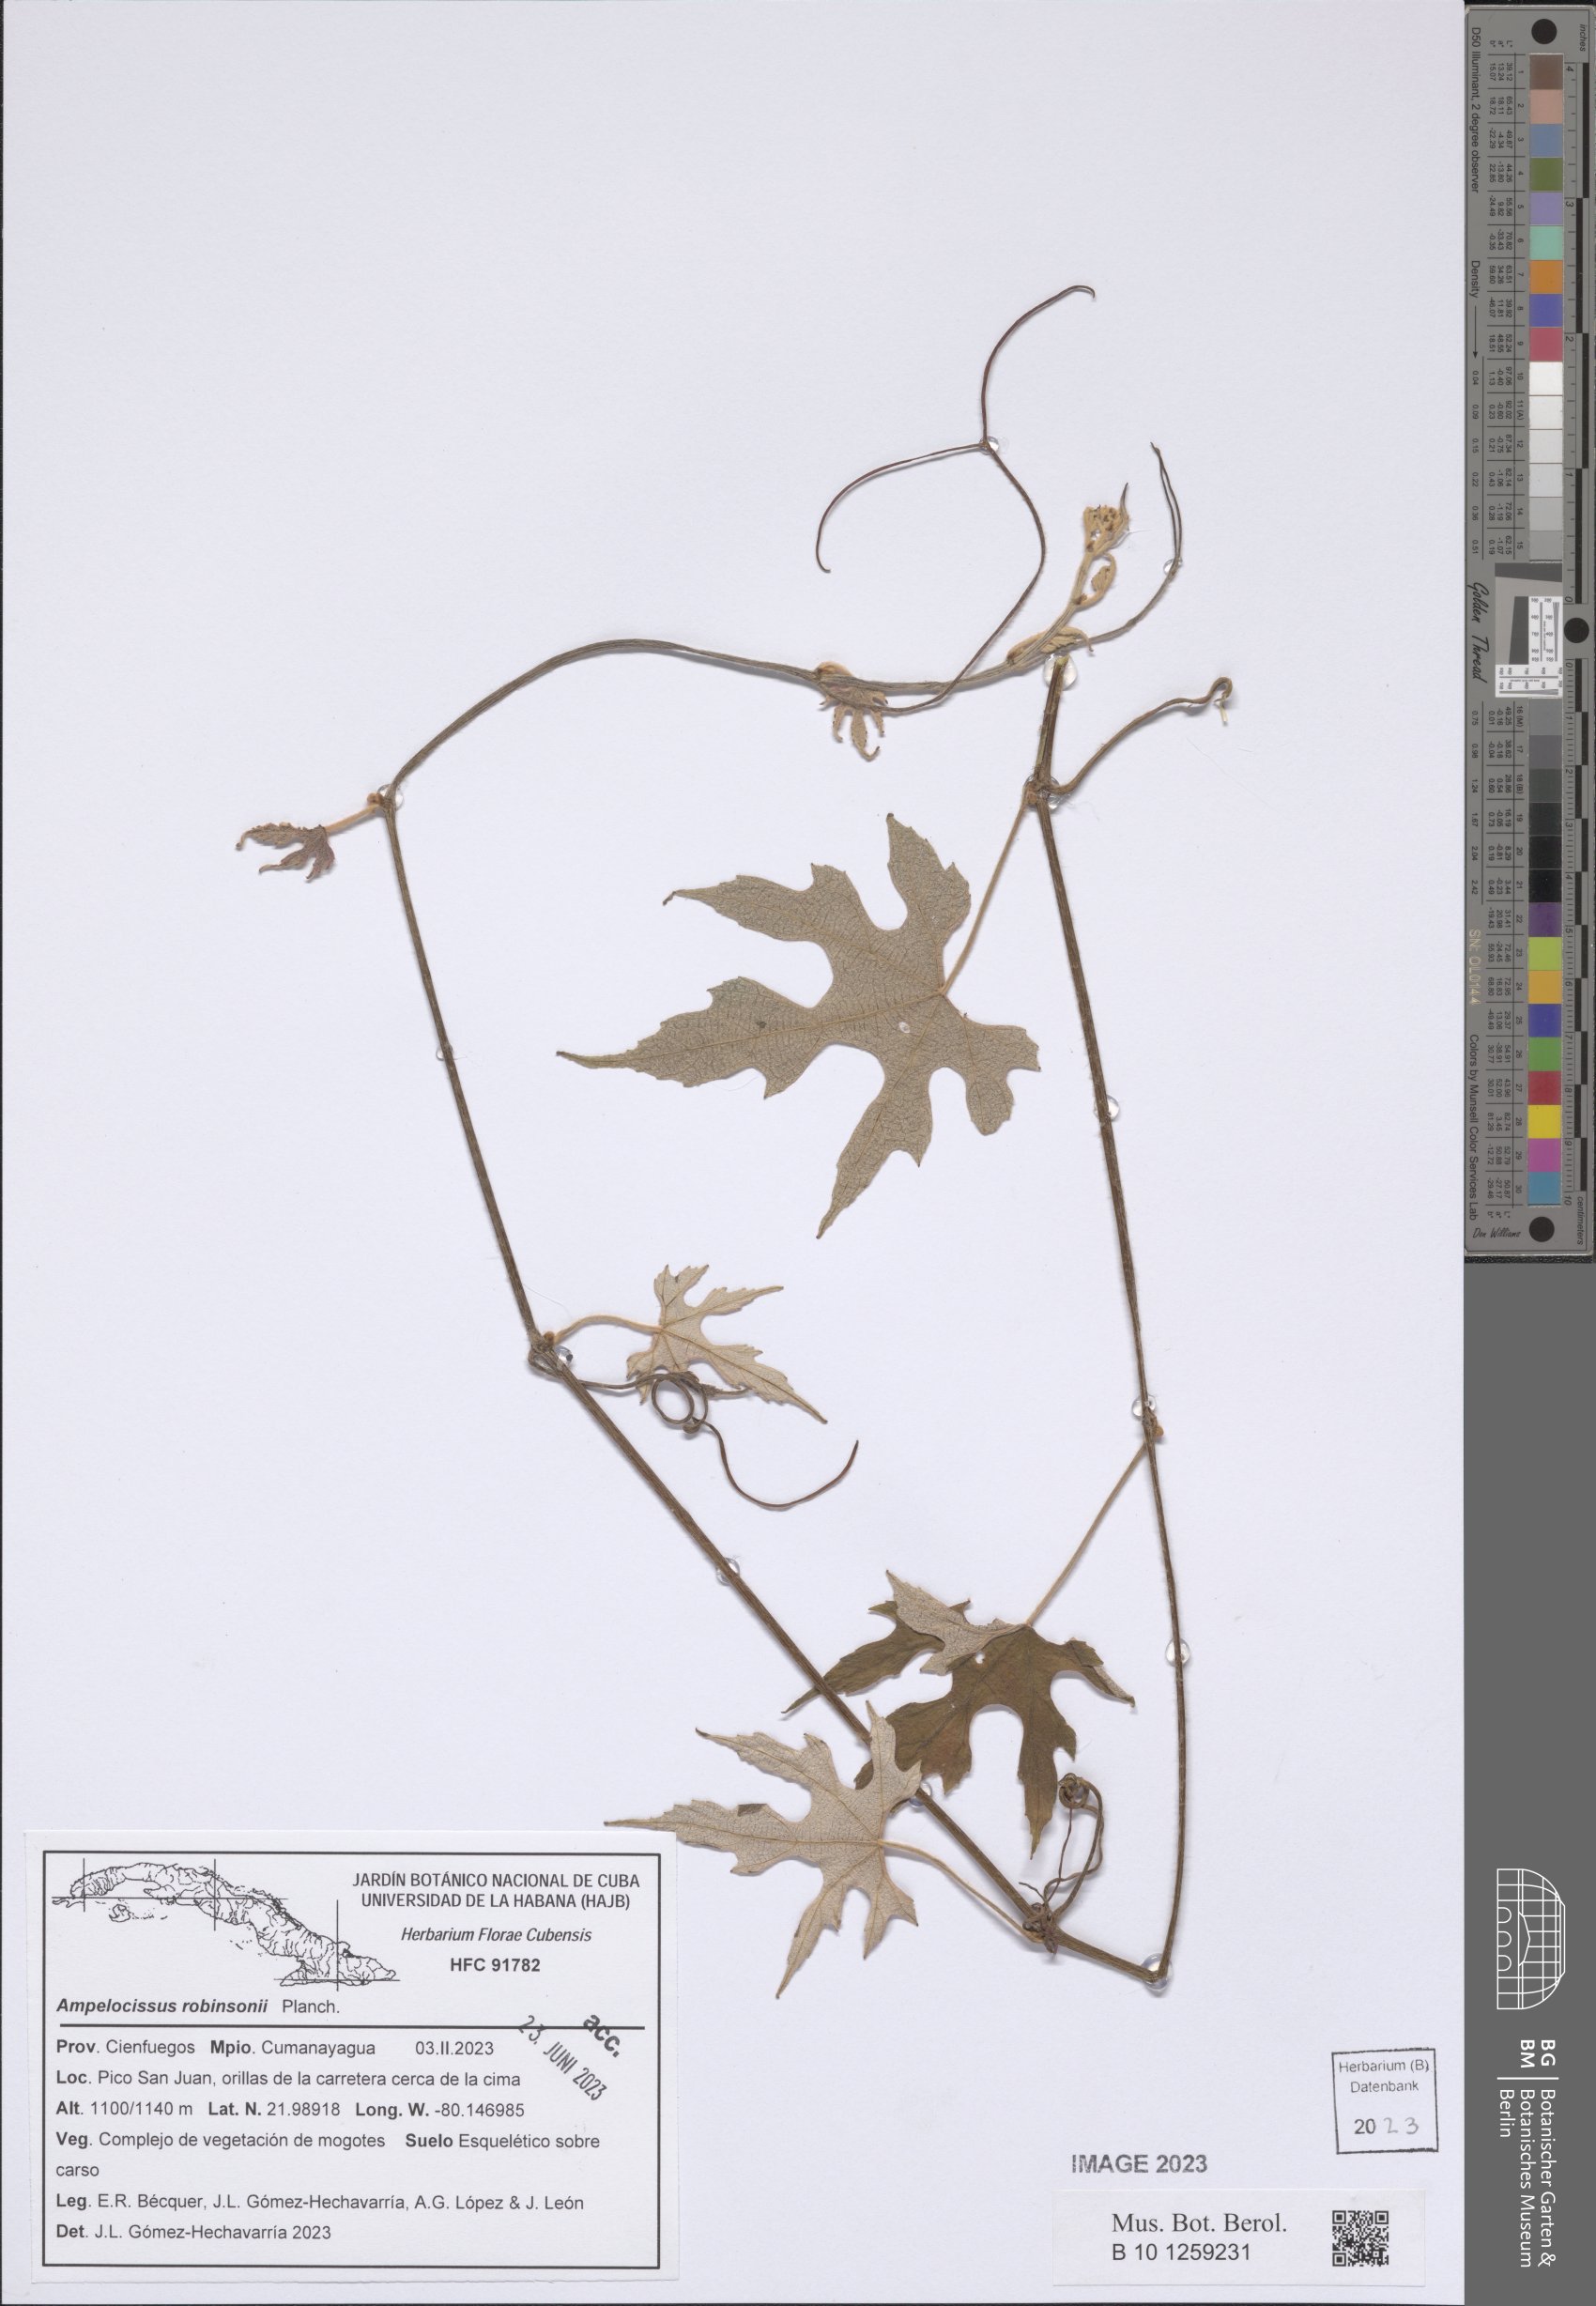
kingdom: Plantae
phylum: Tracheophyta
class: Magnoliopsida
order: Vitales
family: Vitaceae
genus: Ampelocissus
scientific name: Ampelocissus robinsonii
